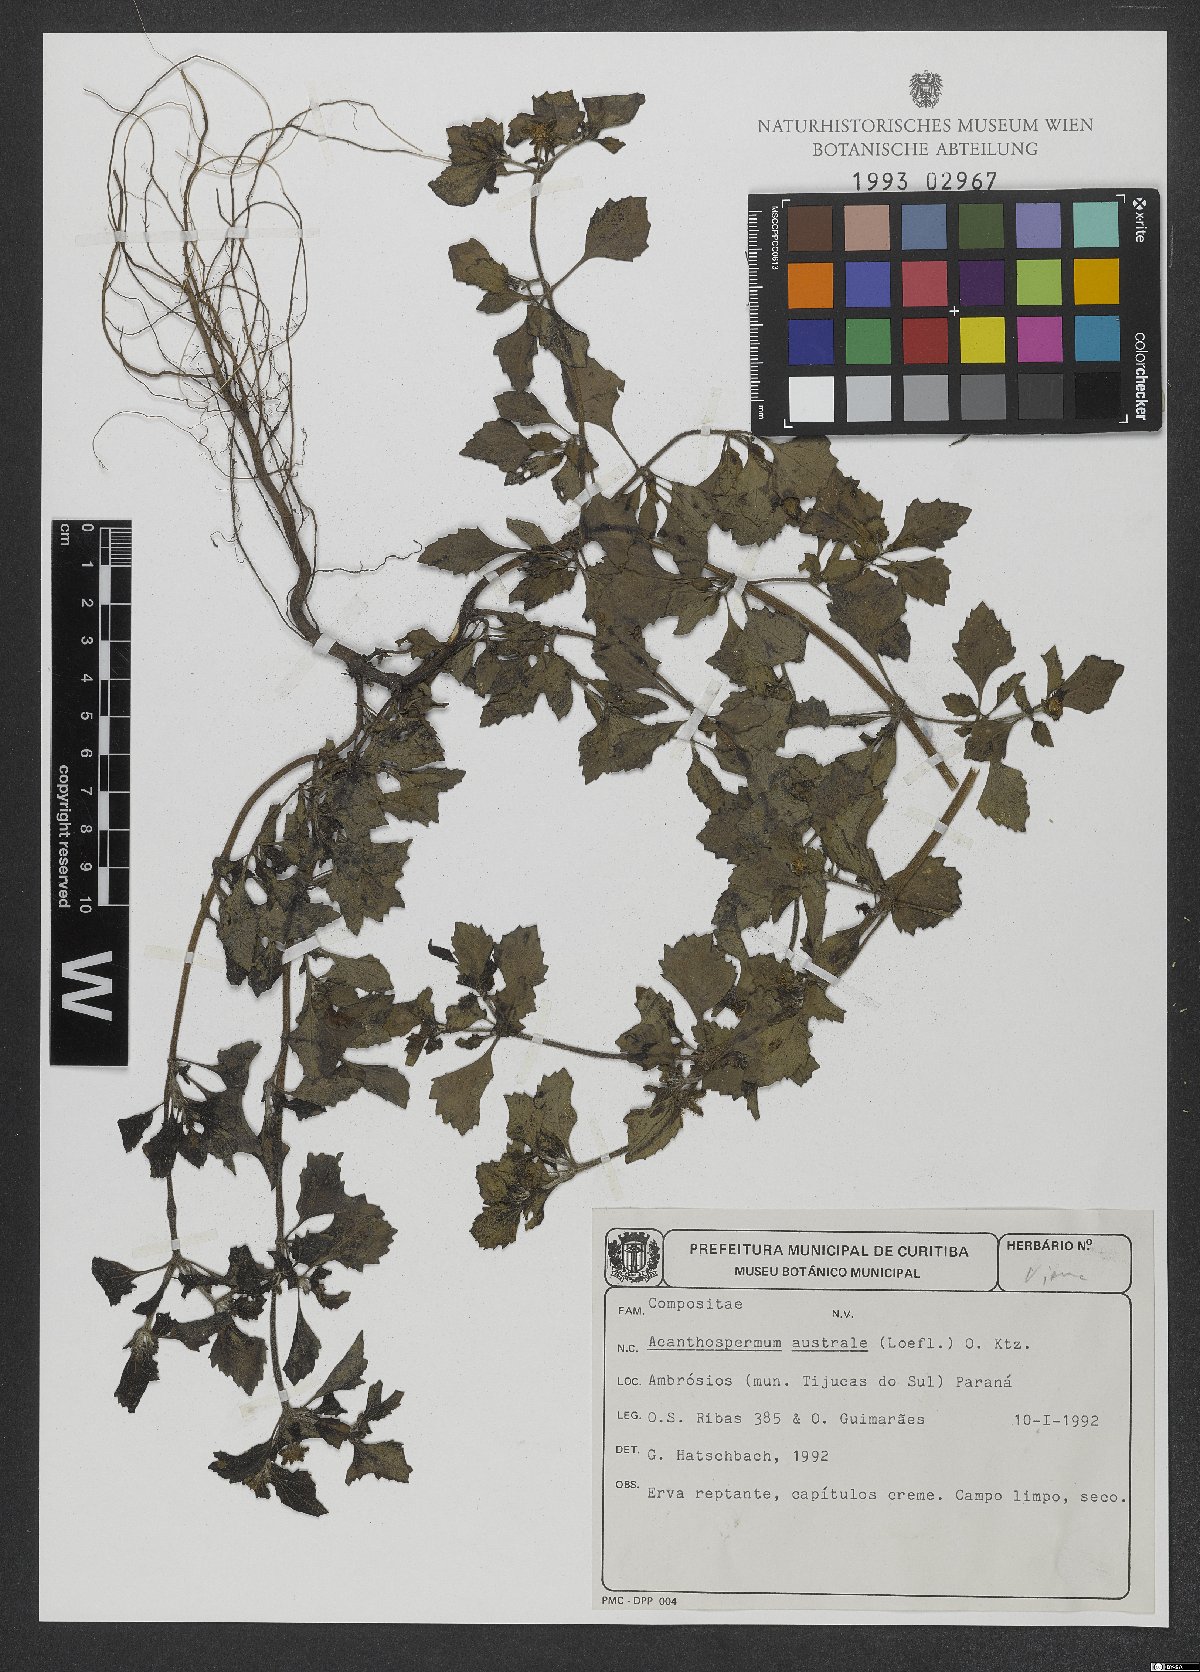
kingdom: Plantae
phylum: Tracheophyta
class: Magnoliopsida
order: Asterales
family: Asteraceae
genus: Acanthospermum
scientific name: Acanthospermum australe
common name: Paraguayan starbur
